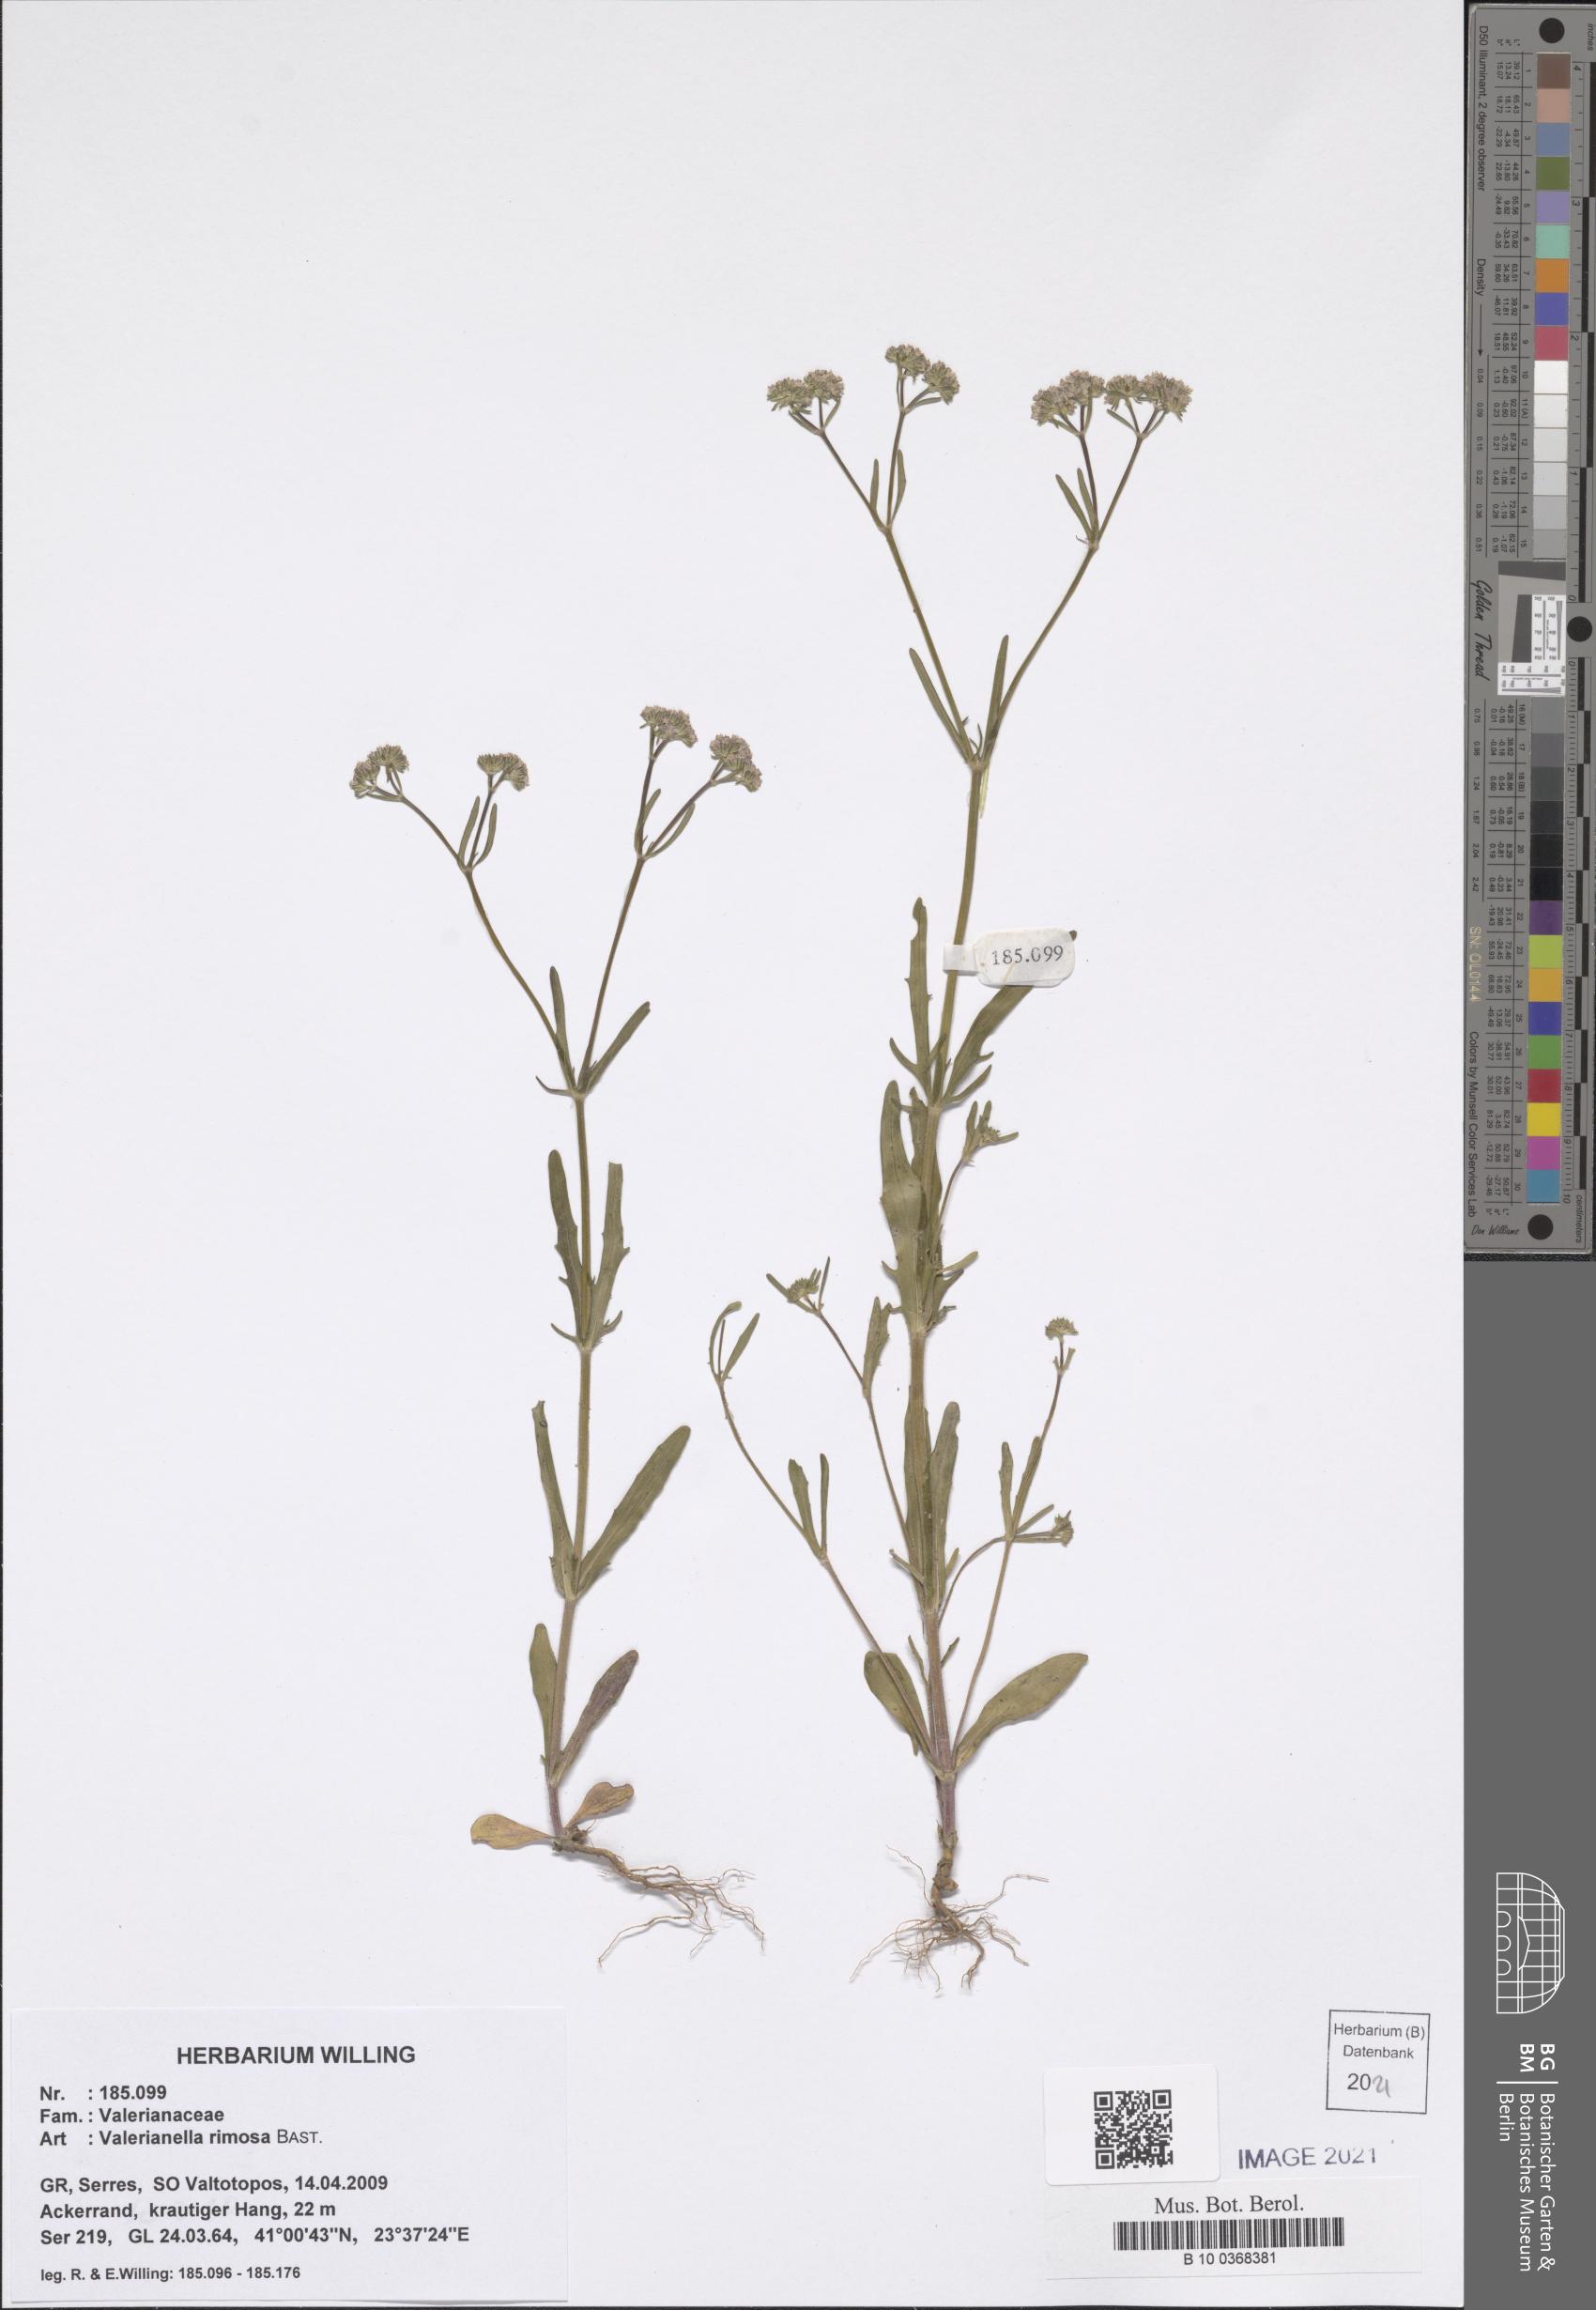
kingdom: Plantae
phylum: Tracheophyta
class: Magnoliopsida
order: Dipsacales
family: Caprifoliaceae
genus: Valerianella
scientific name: Valerianella rimosa
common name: Broad-fruited cornsalad
